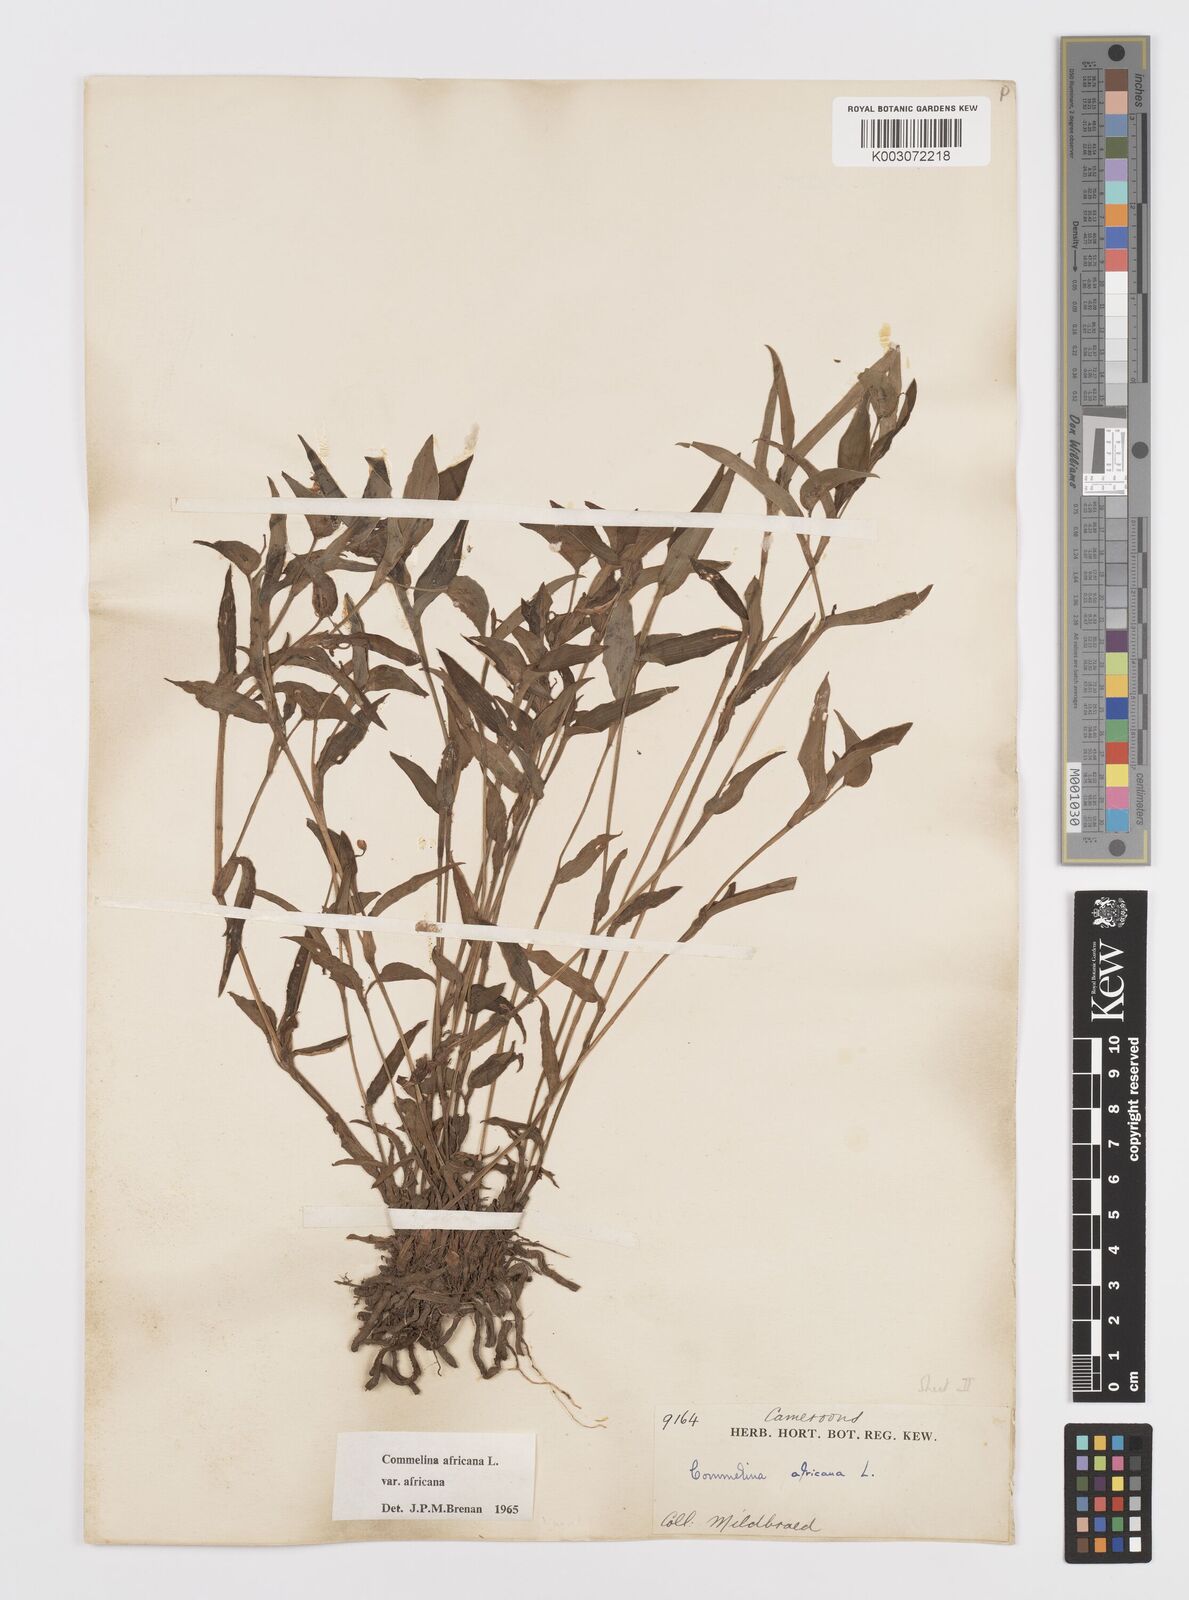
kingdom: Plantae
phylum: Tracheophyta
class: Liliopsida
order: Commelinales
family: Commelinaceae
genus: Commelina
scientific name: Commelina africana
